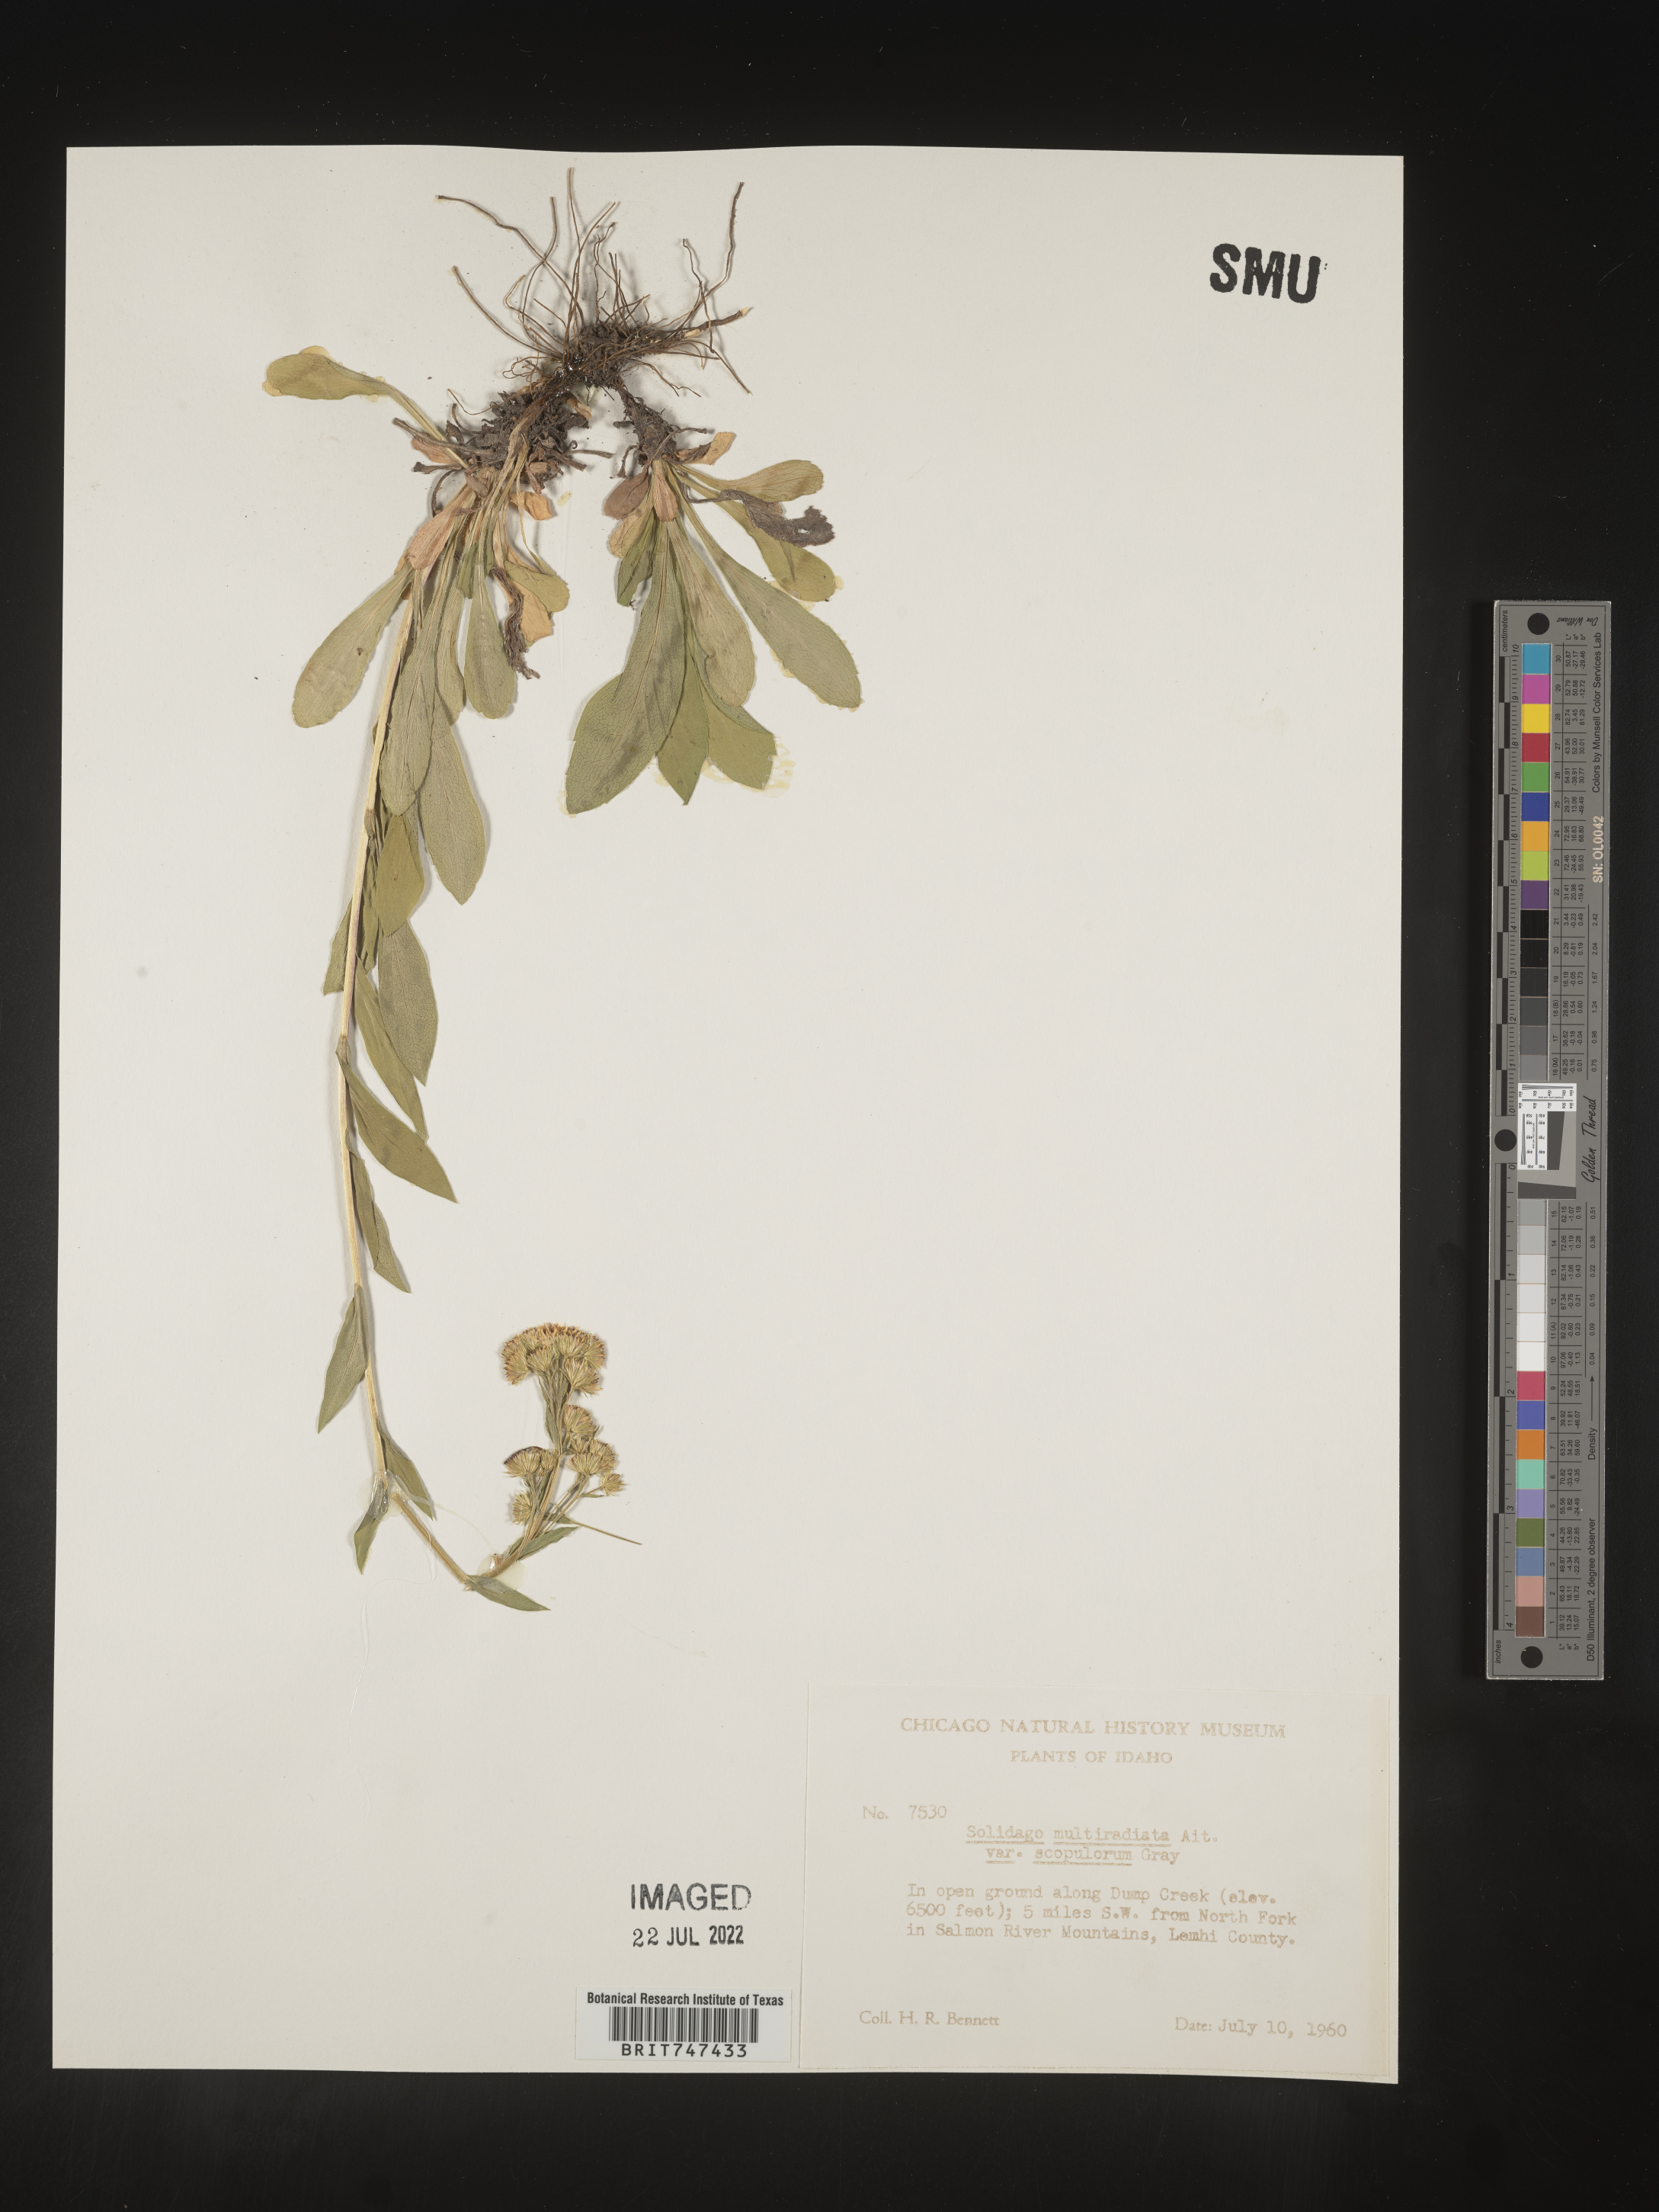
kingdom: Plantae
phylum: Tracheophyta
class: Magnoliopsida
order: Asterales
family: Asteraceae
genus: Solidago
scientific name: Solidago multiradiata
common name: Northern goldenrod
